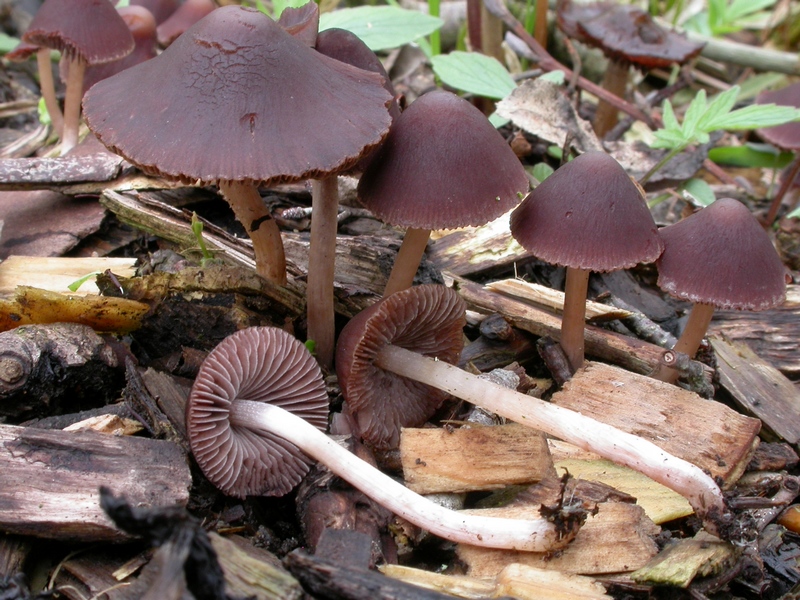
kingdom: Fungi
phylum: Basidiomycota
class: Agaricomycetes
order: Agaricales
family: Psathyrellaceae
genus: Psathyrella
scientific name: Psathyrella bipellis
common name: vinrød mørkhat
